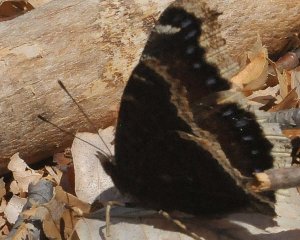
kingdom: Animalia
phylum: Arthropoda
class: Insecta
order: Lepidoptera
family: Nymphalidae
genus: Nymphalis
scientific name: Nymphalis antiopa
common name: Mourning Cloak
